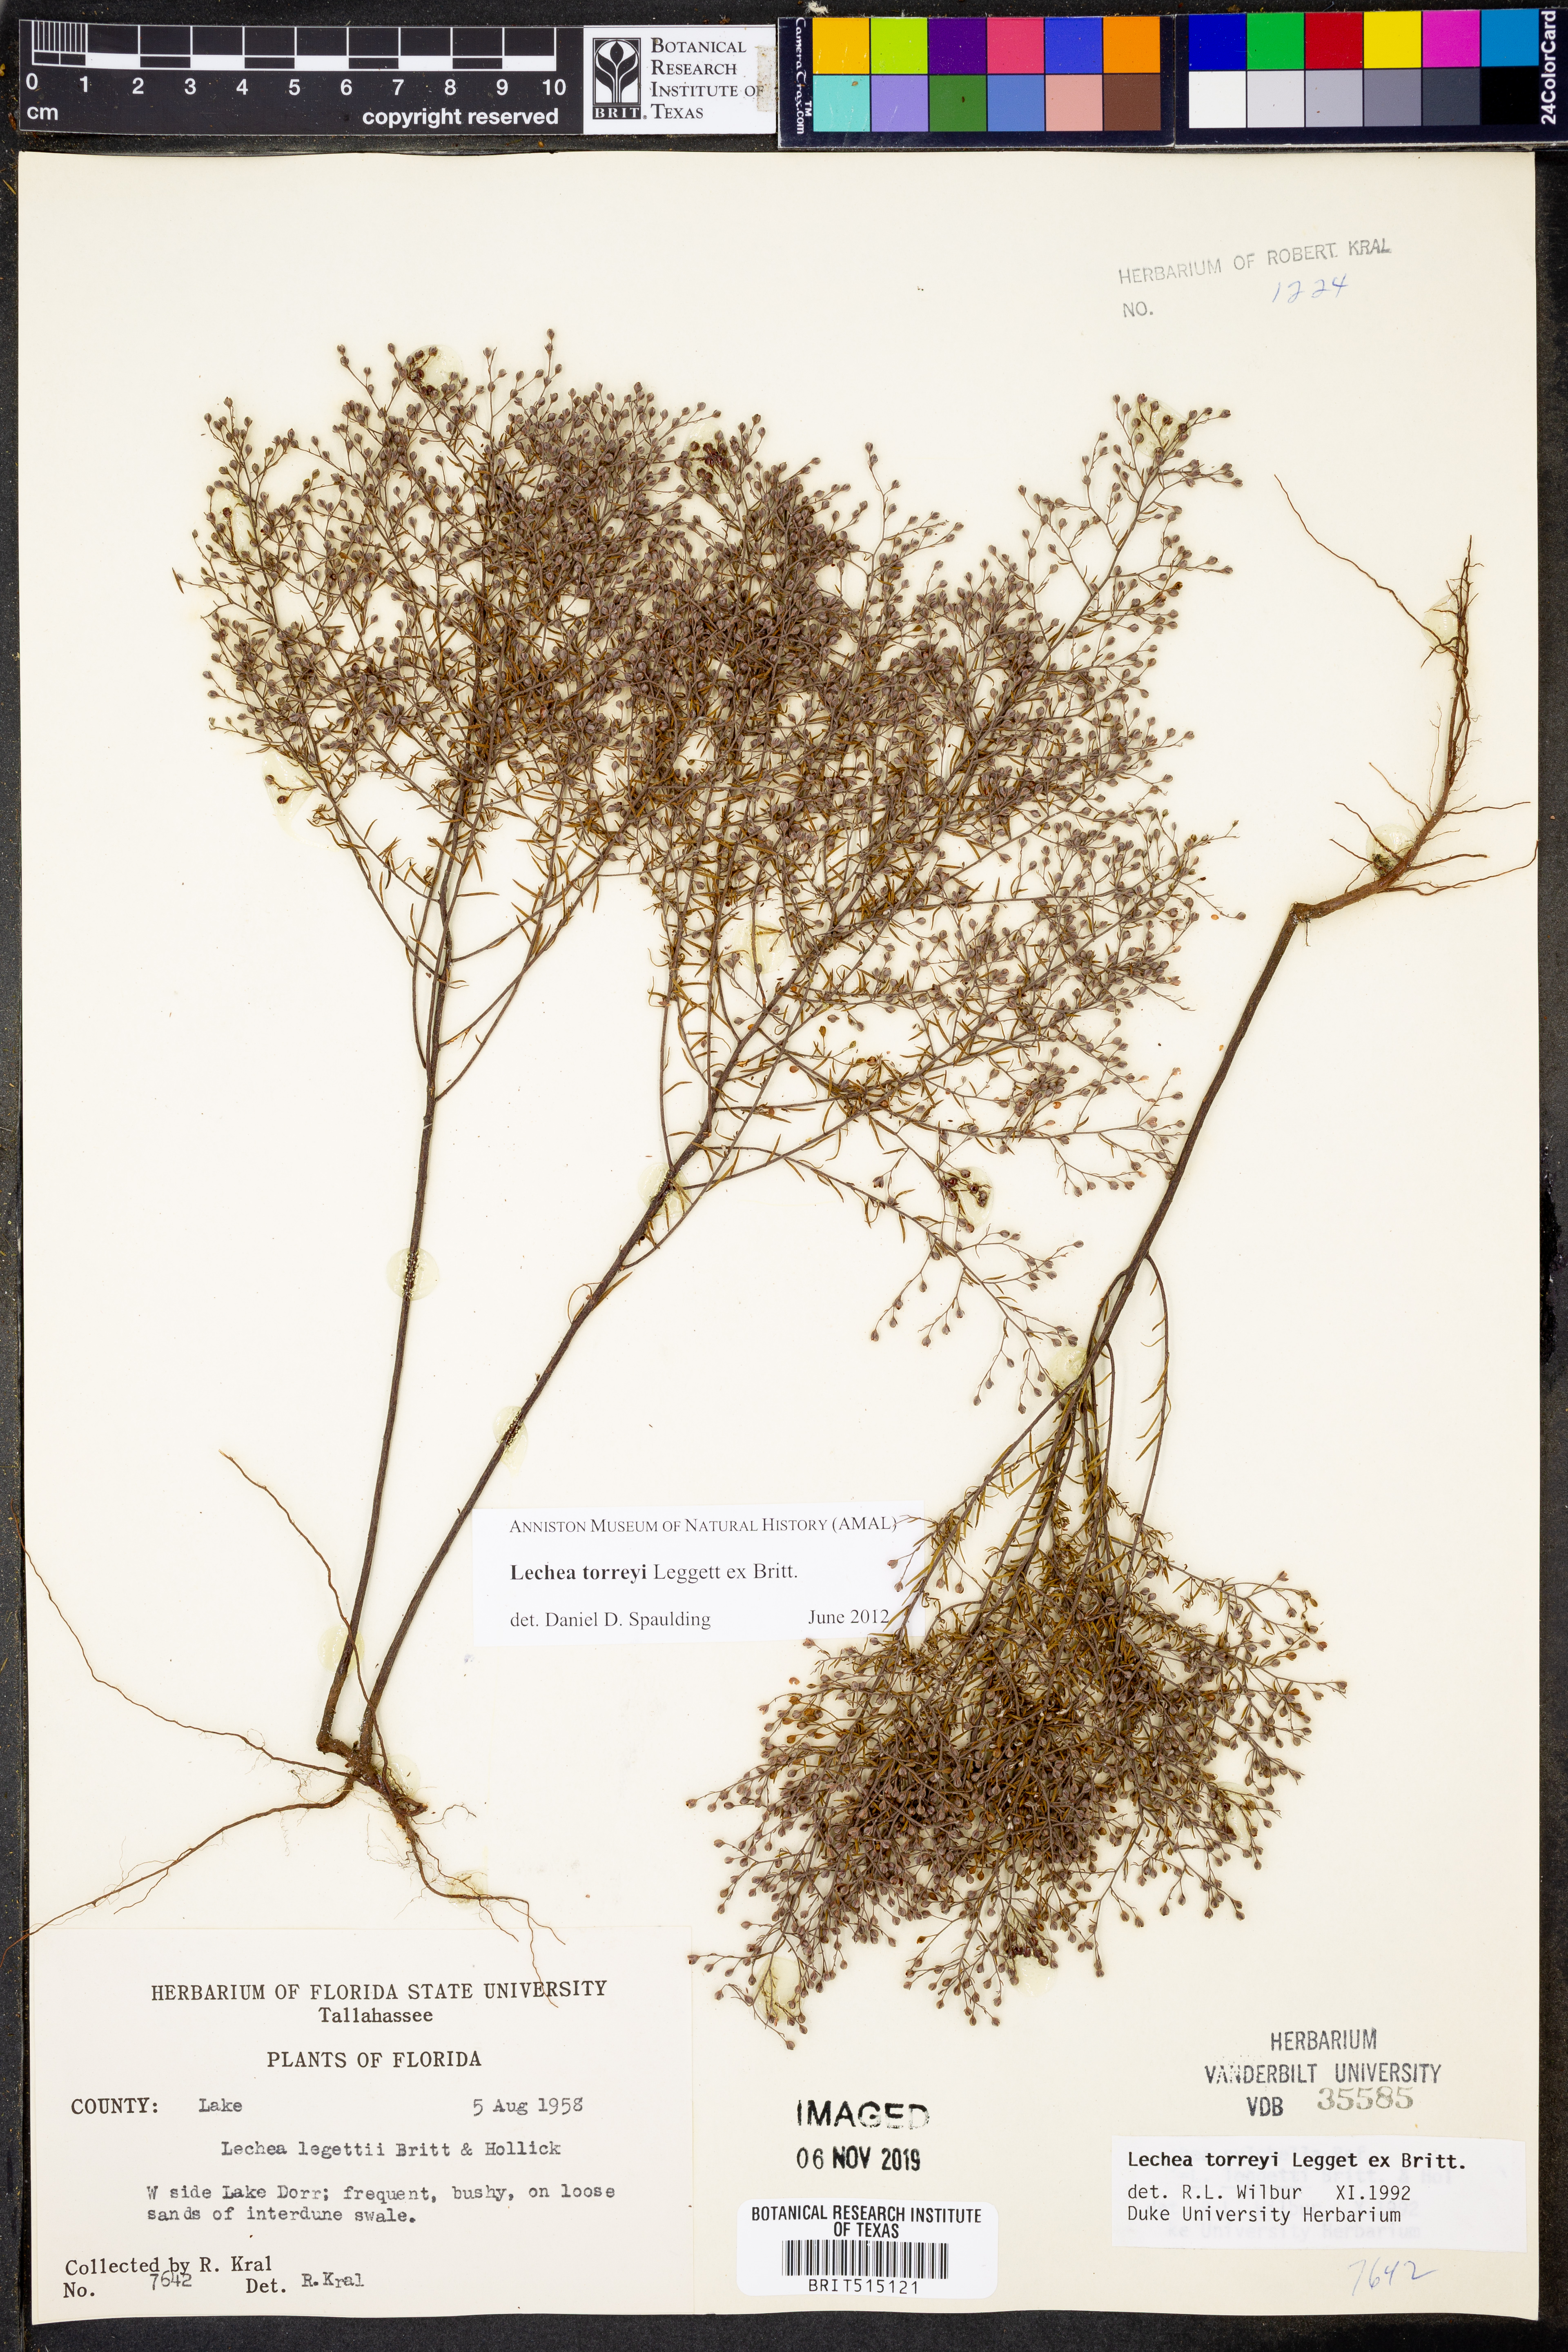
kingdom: Plantae
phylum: Tracheophyta
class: Magnoliopsida
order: Malvales
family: Cistaceae
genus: Lechea
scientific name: Lechea torreyi
